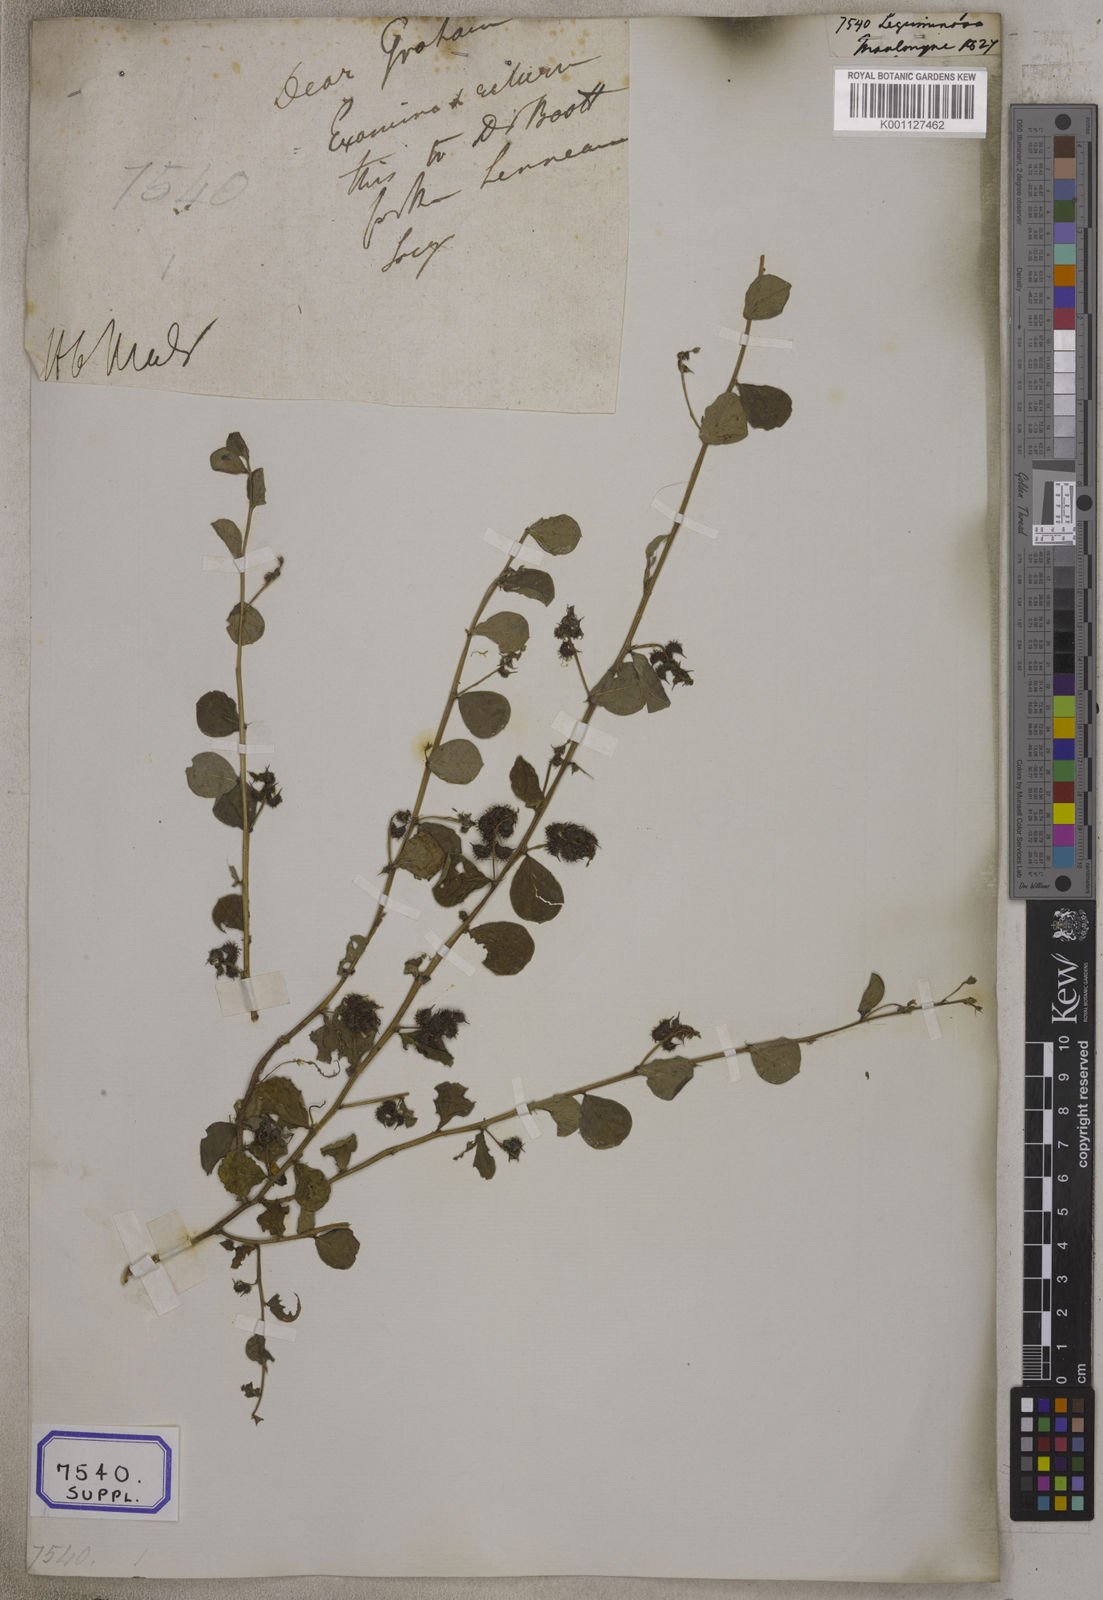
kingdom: Plantae
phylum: Tracheophyta
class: Magnoliopsida
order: Fabales
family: Fabaceae
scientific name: Fabaceae
